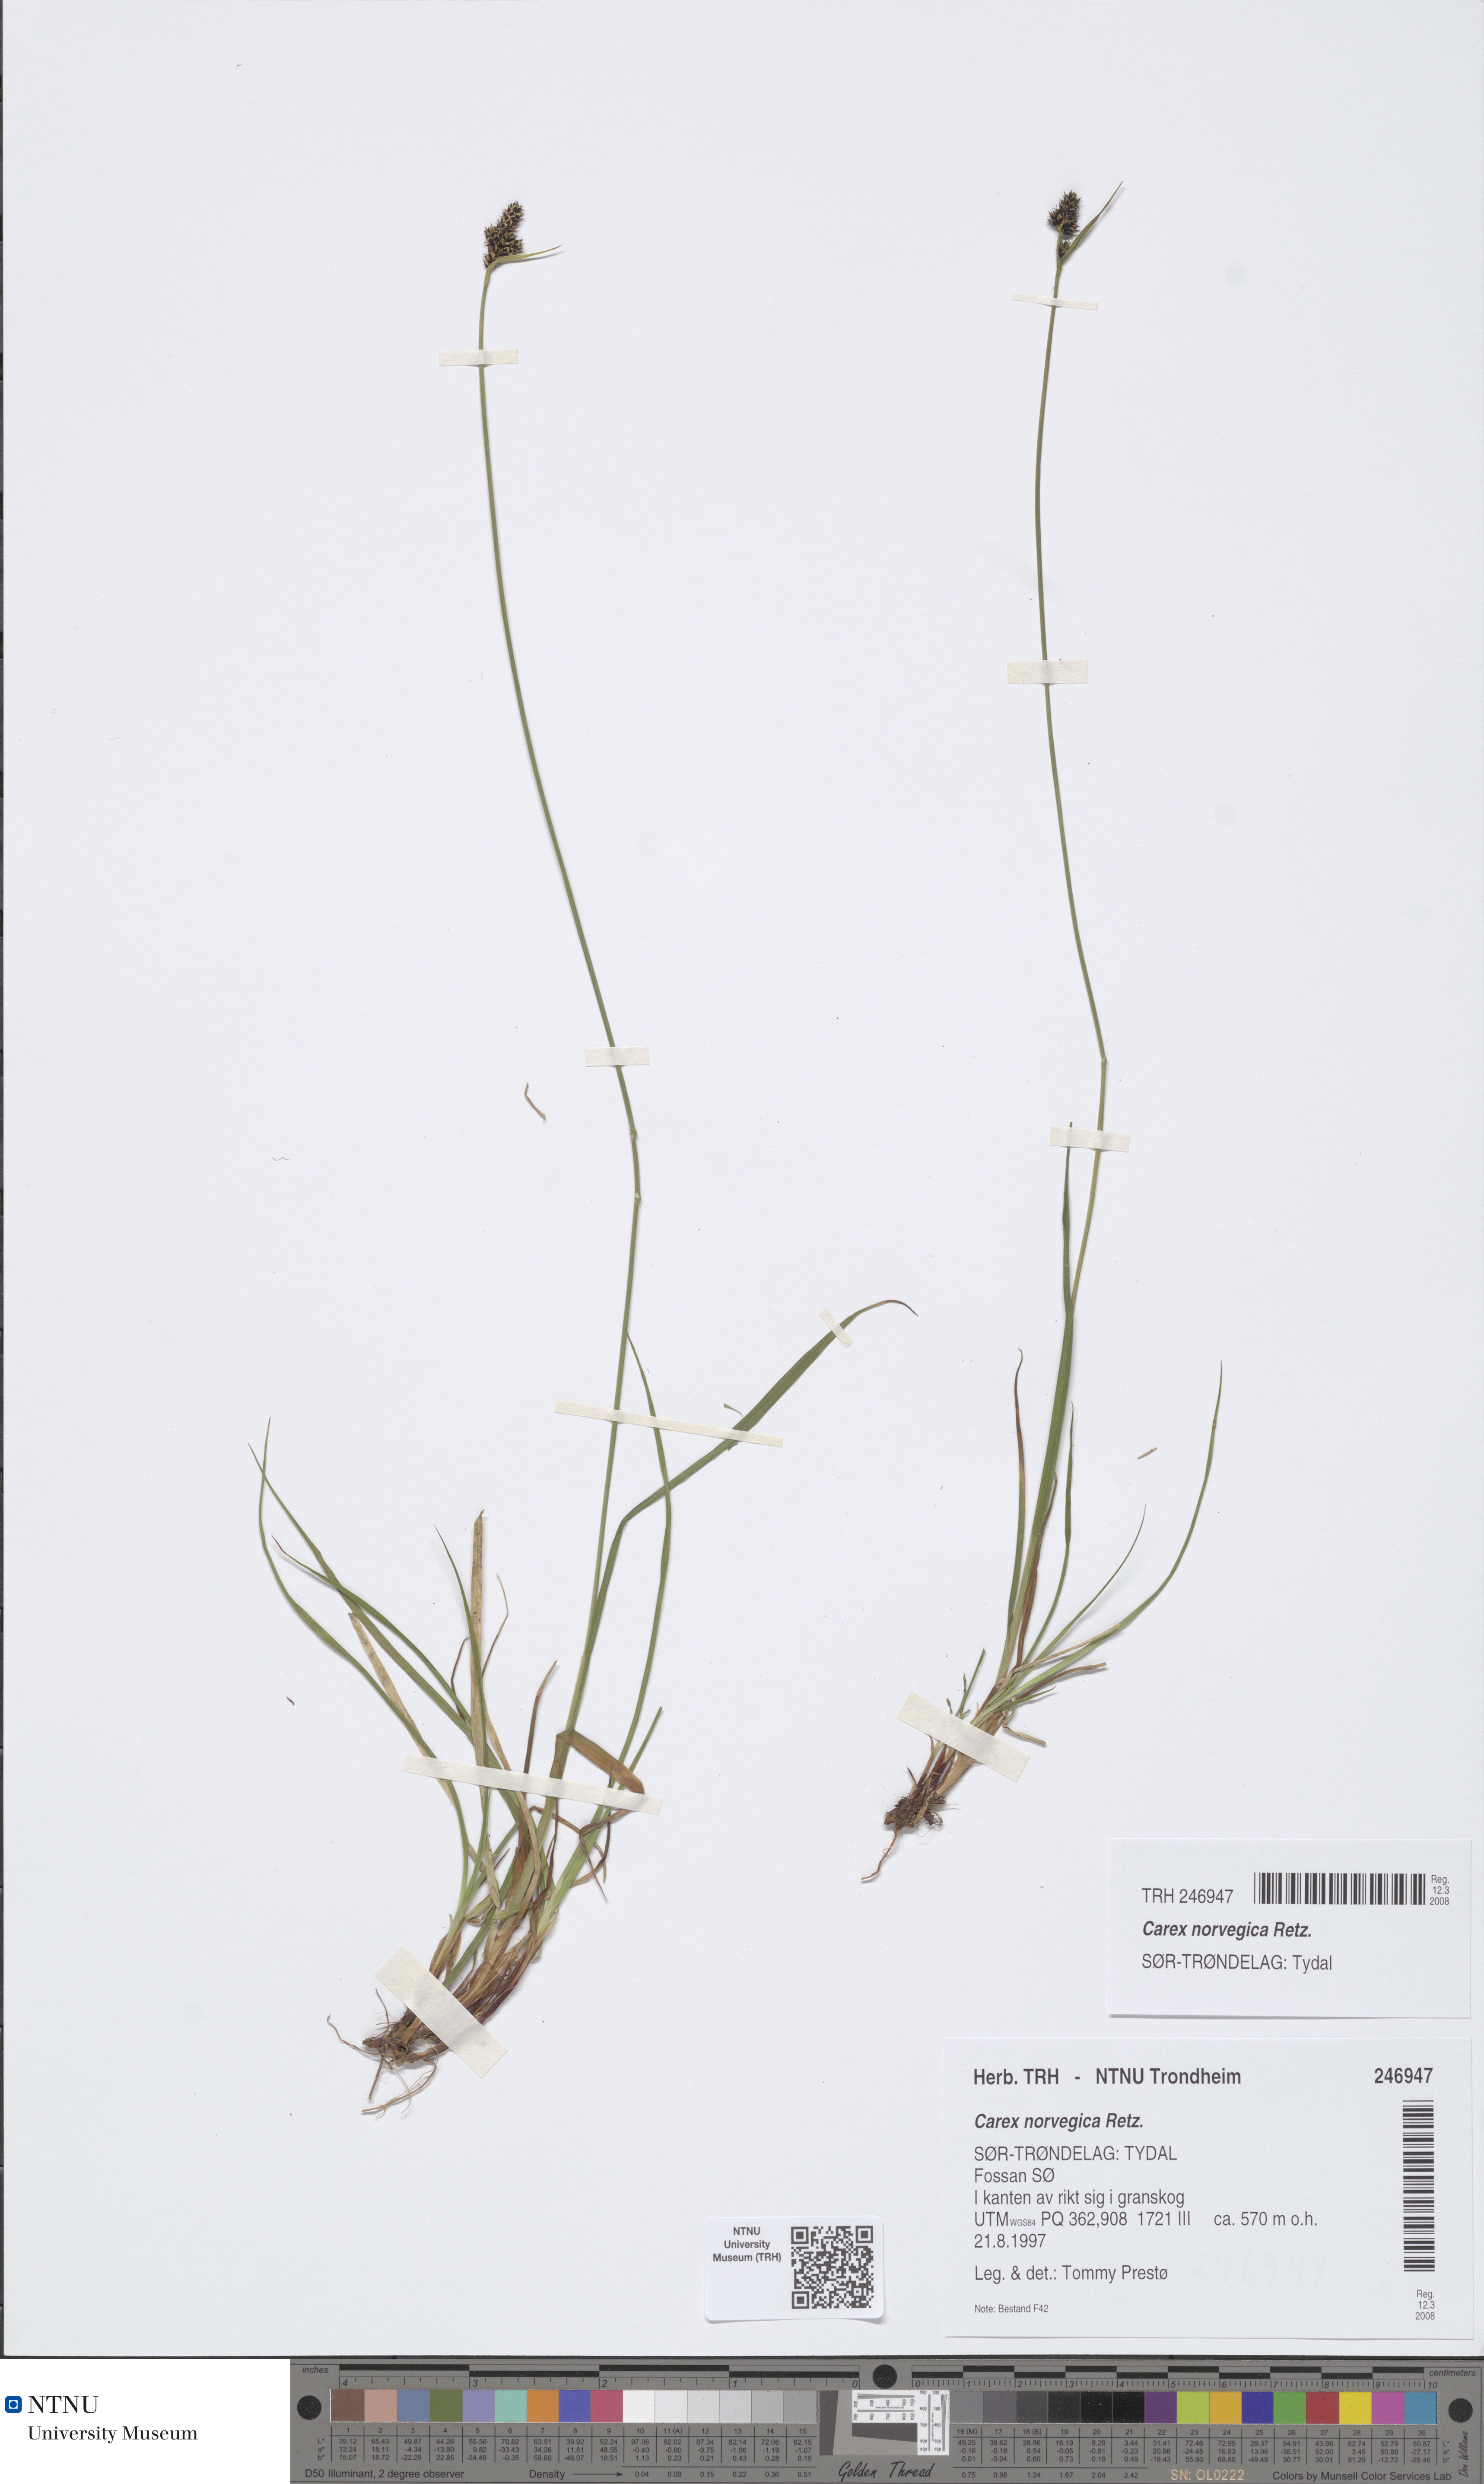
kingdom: Plantae
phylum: Tracheophyta
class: Liliopsida
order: Poales
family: Cyperaceae
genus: Carex
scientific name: Carex norvegica
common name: Close-headed alpine-sedge
